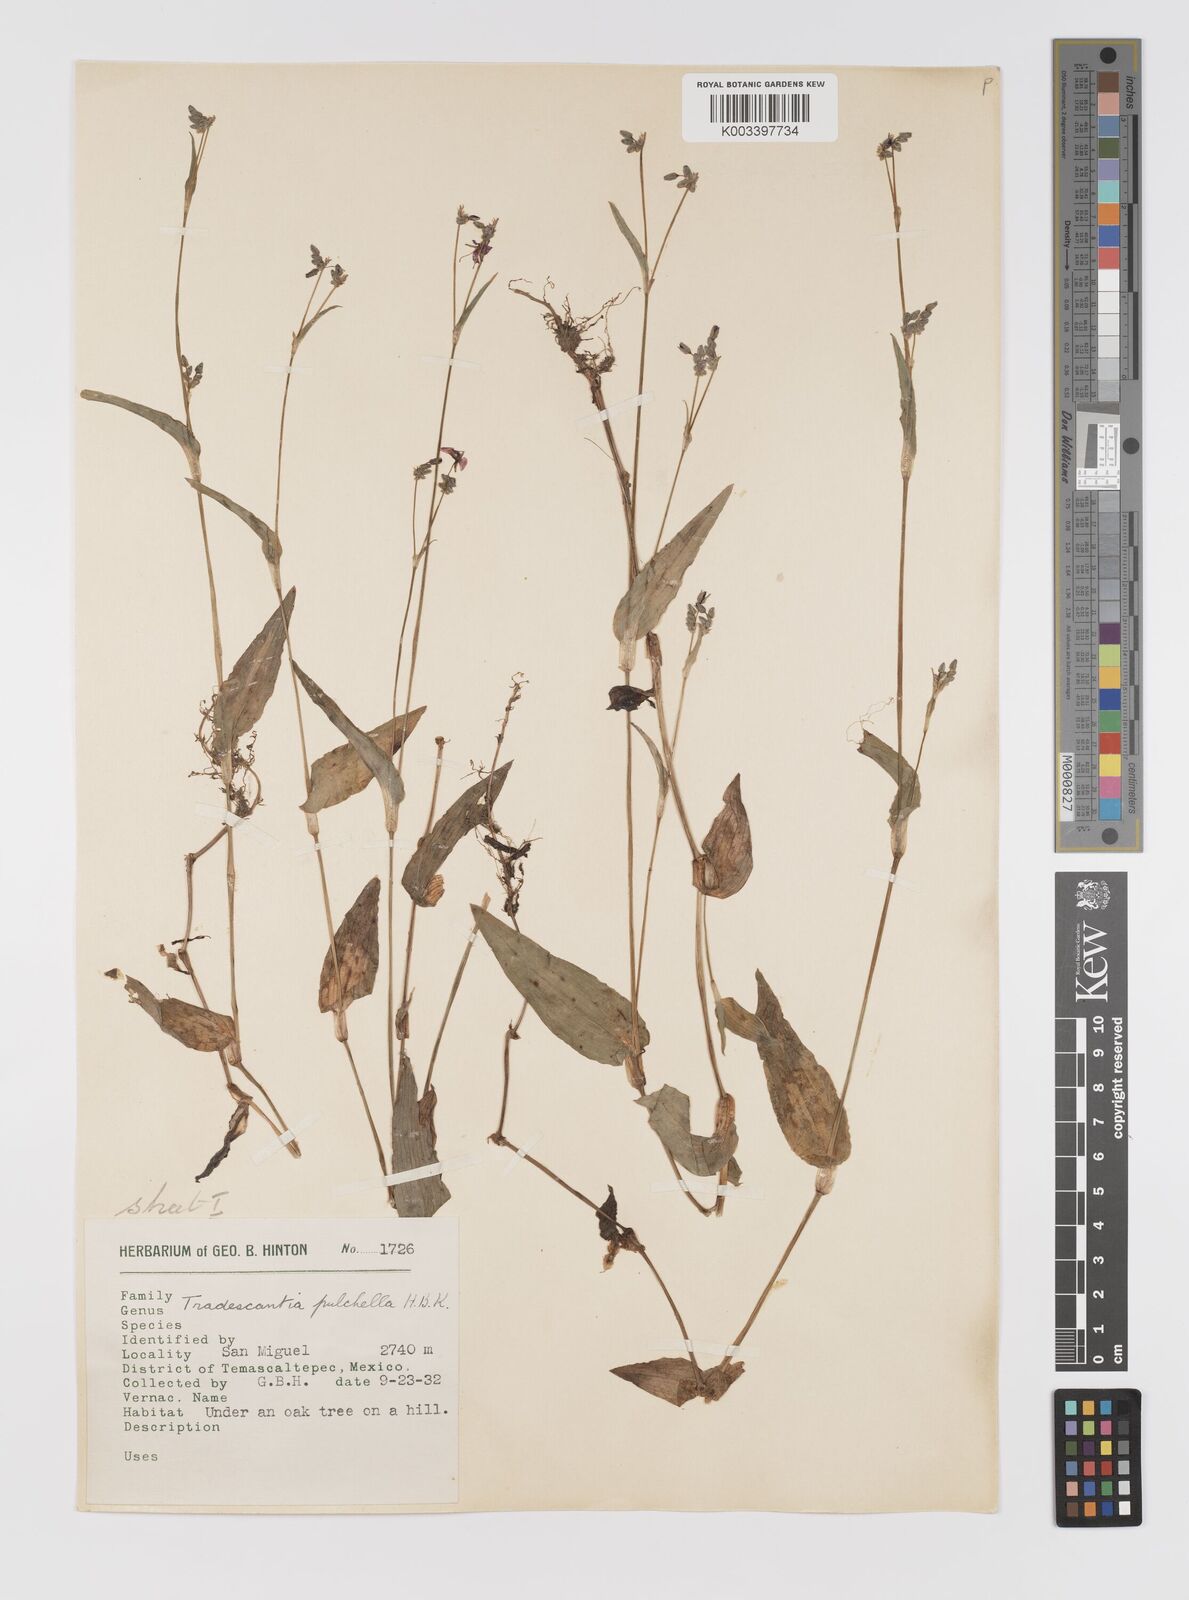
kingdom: Plantae
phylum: Tracheophyta
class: Liliopsida
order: Commelinales
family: Commelinaceae
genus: Gibasis
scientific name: Gibasis pulchella
